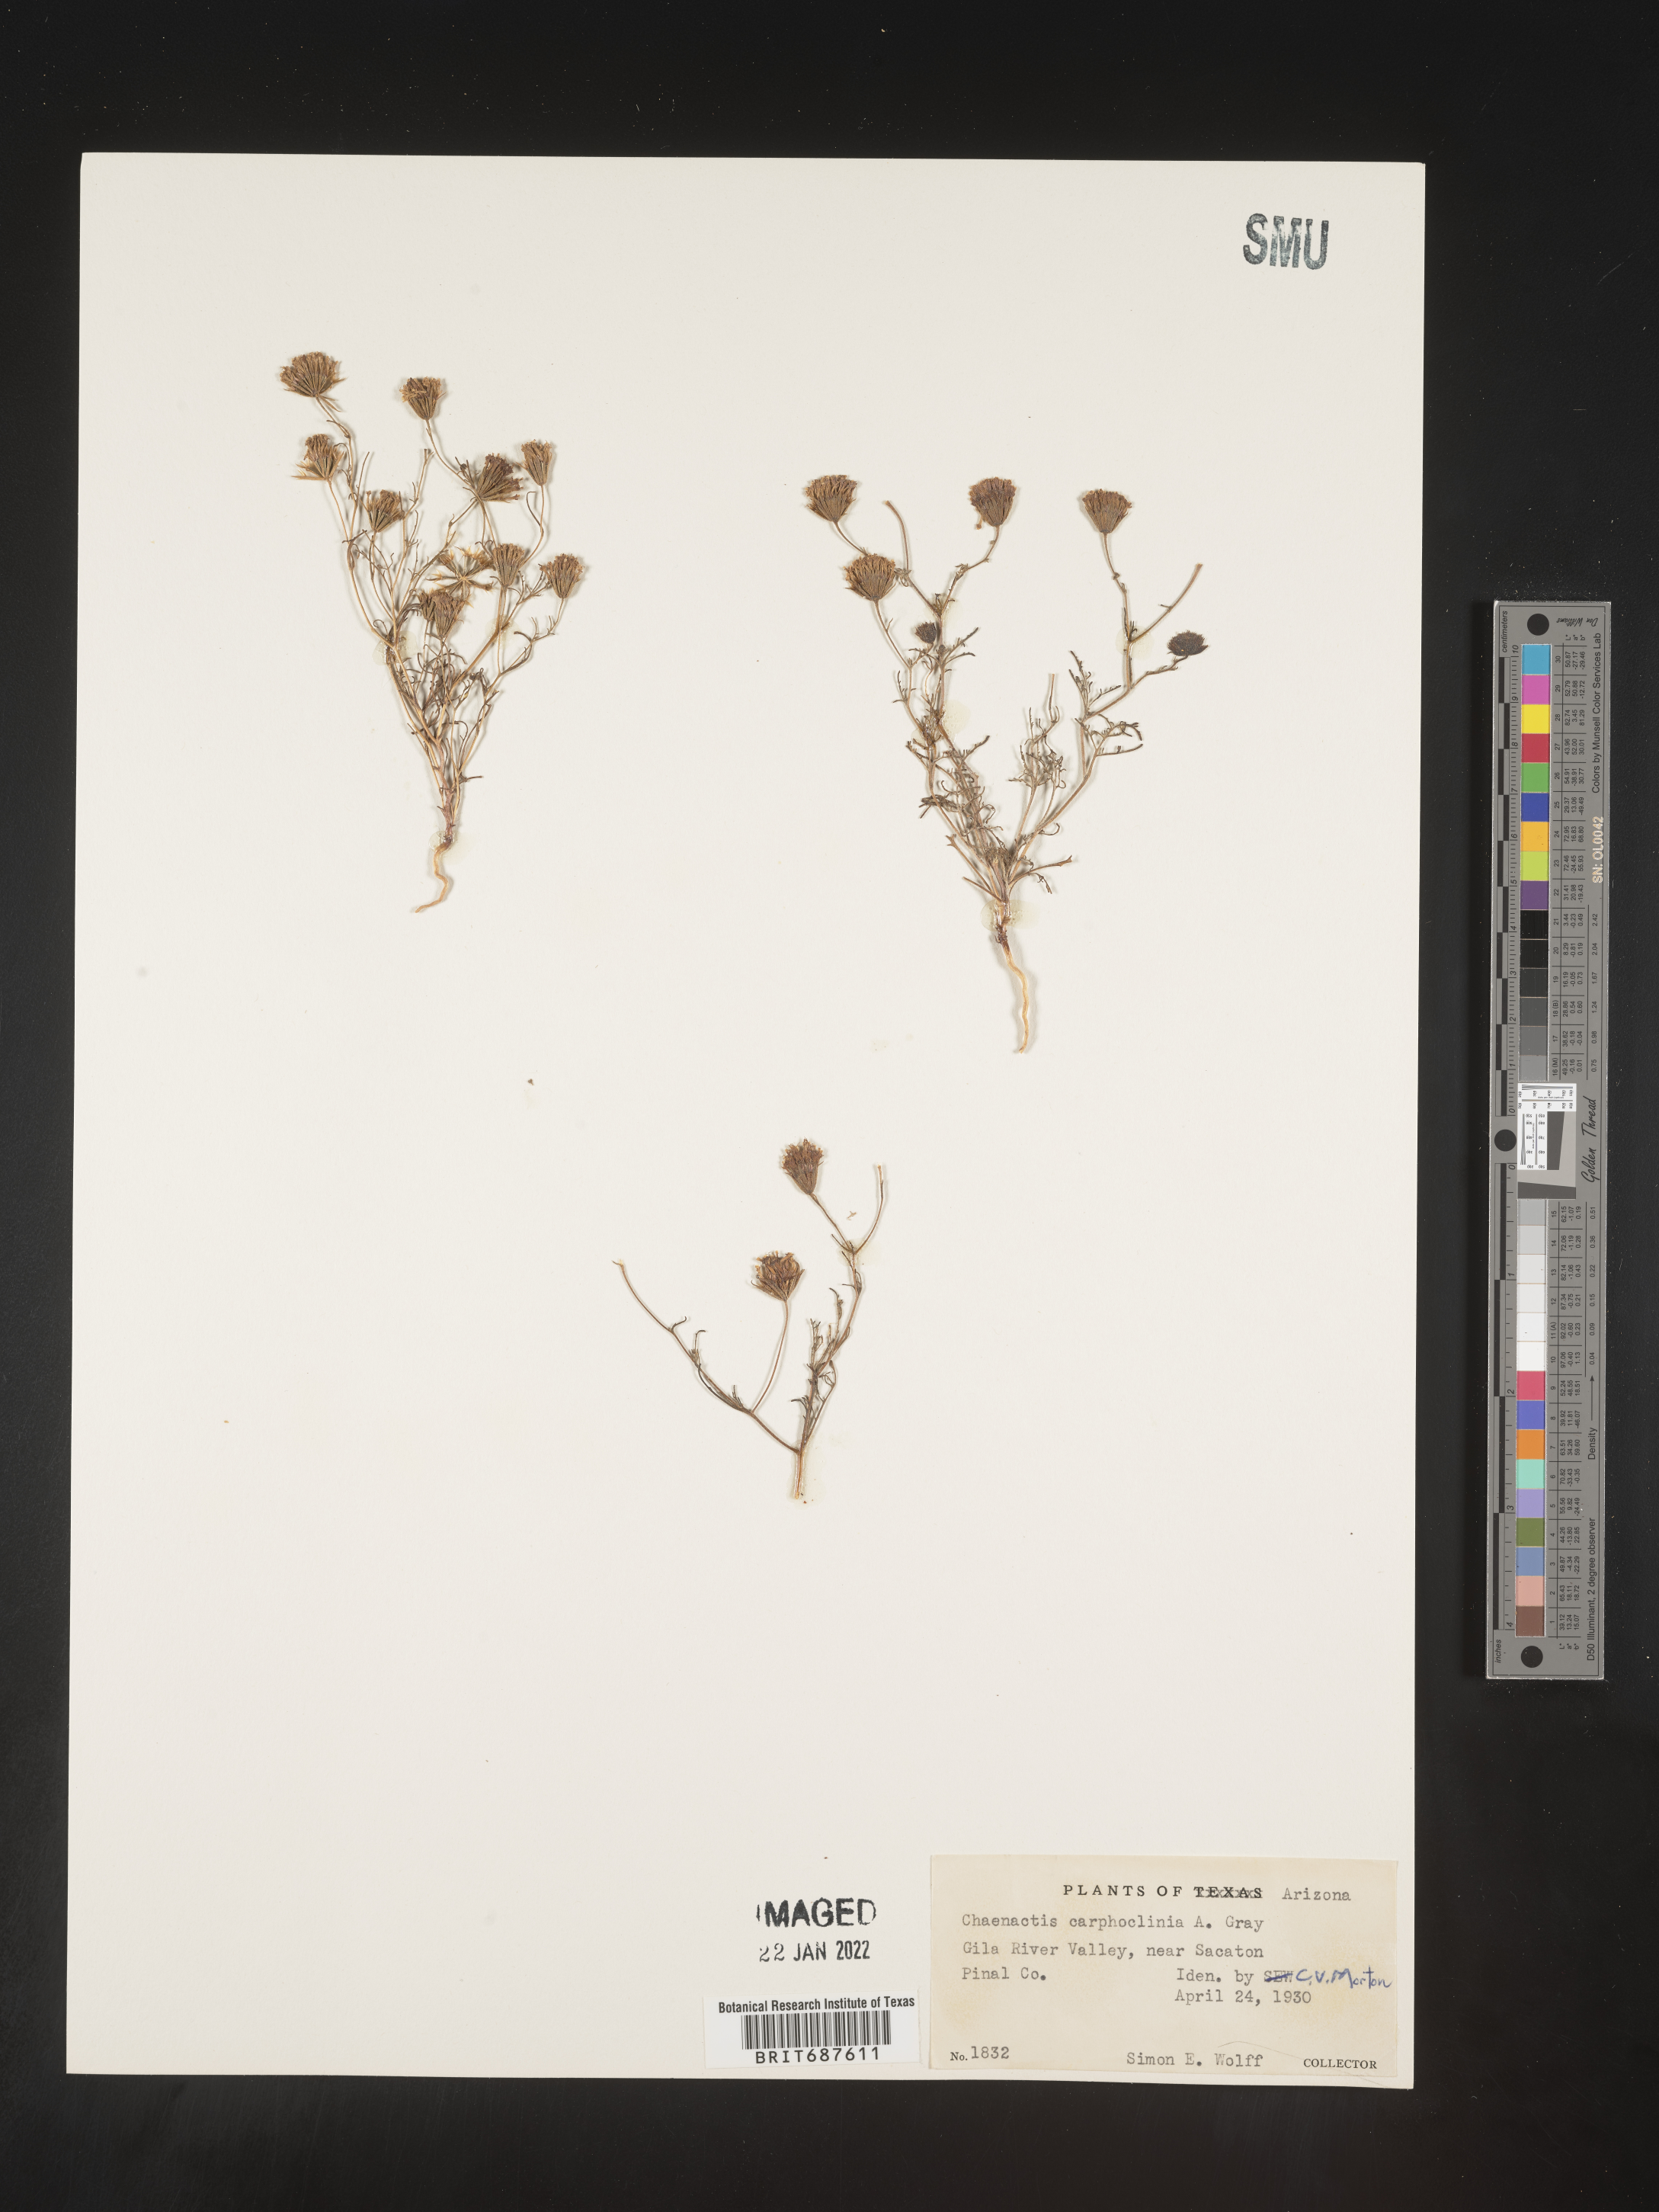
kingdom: Plantae
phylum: Tracheophyta
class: Magnoliopsida
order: Asterales
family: Asteraceae
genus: Chaenactis
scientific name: Chaenactis carphoclinia
